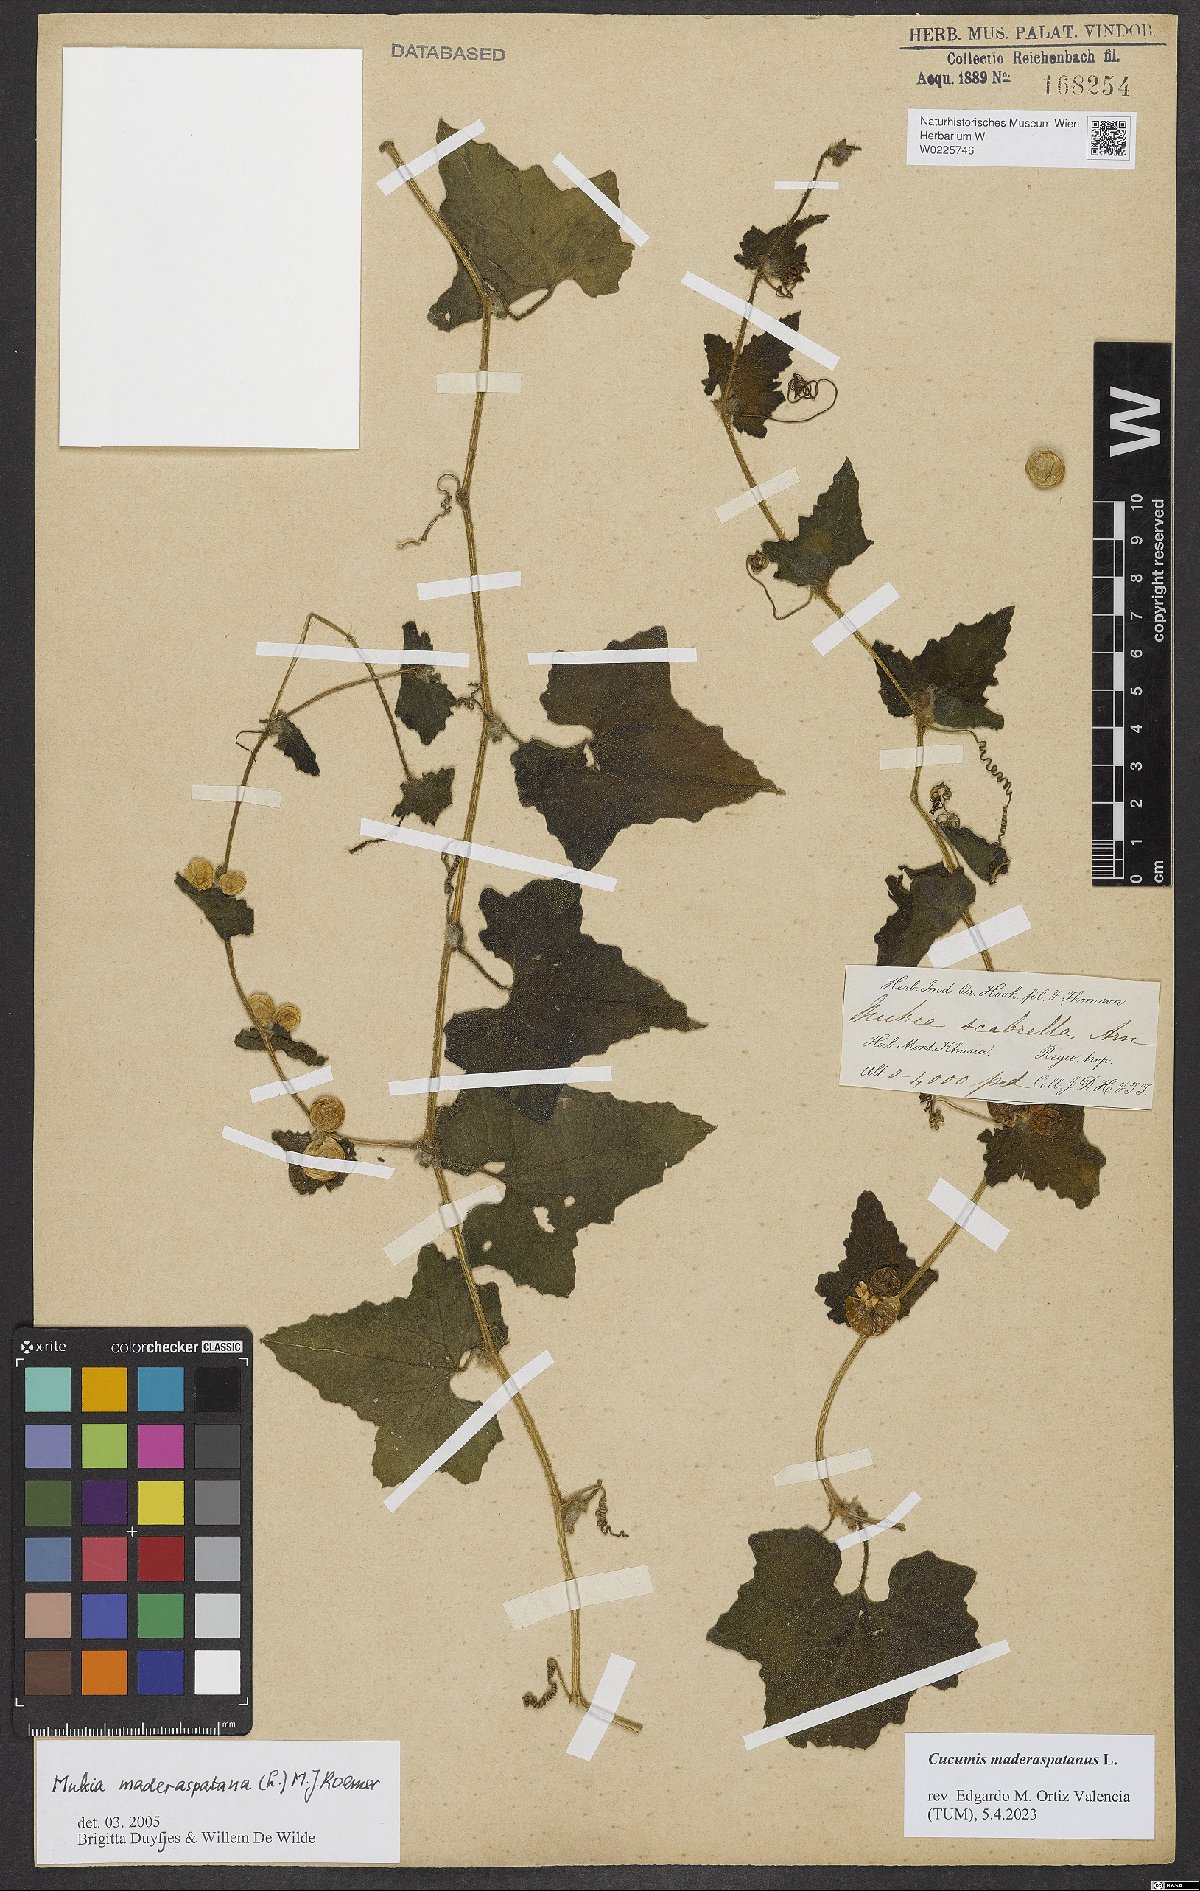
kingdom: Plantae
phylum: Tracheophyta
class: Magnoliopsida
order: Cucurbitales
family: Cucurbitaceae
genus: Cucumis
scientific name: Cucumis maderaspatanus
